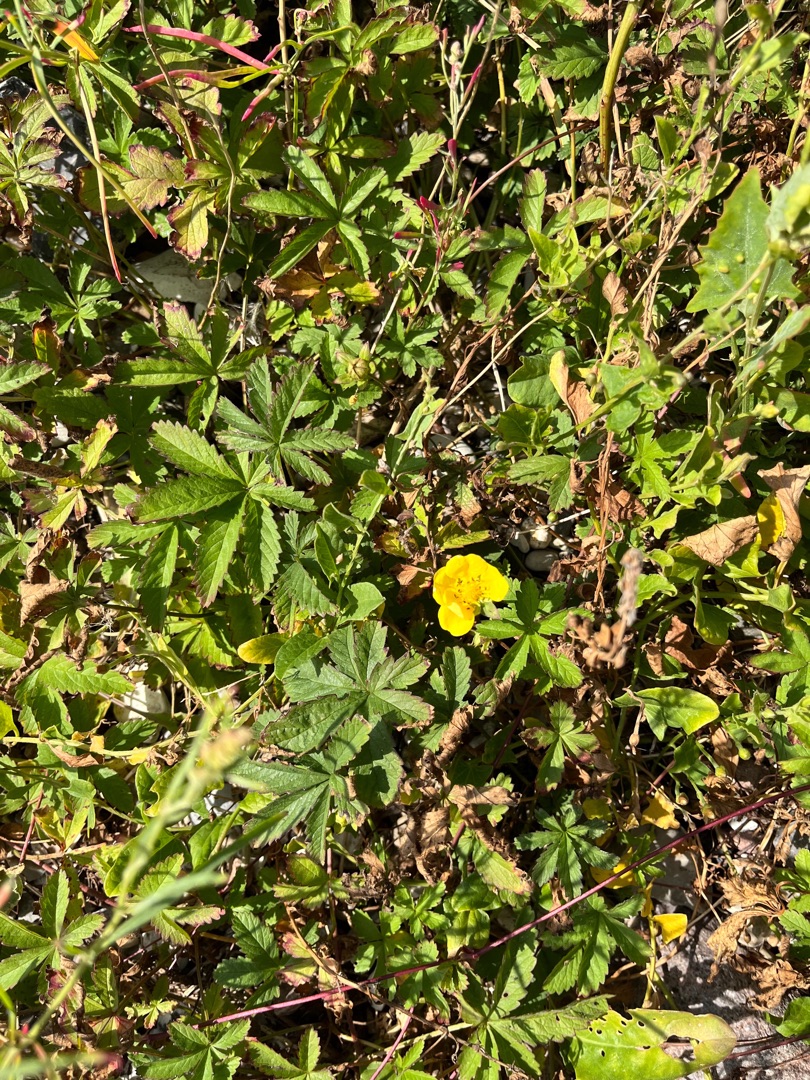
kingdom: Plantae
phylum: Tracheophyta
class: Magnoliopsida
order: Rosales
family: Rosaceae
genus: Potentilla
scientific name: Potentilla reptans
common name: Krybende potentil
